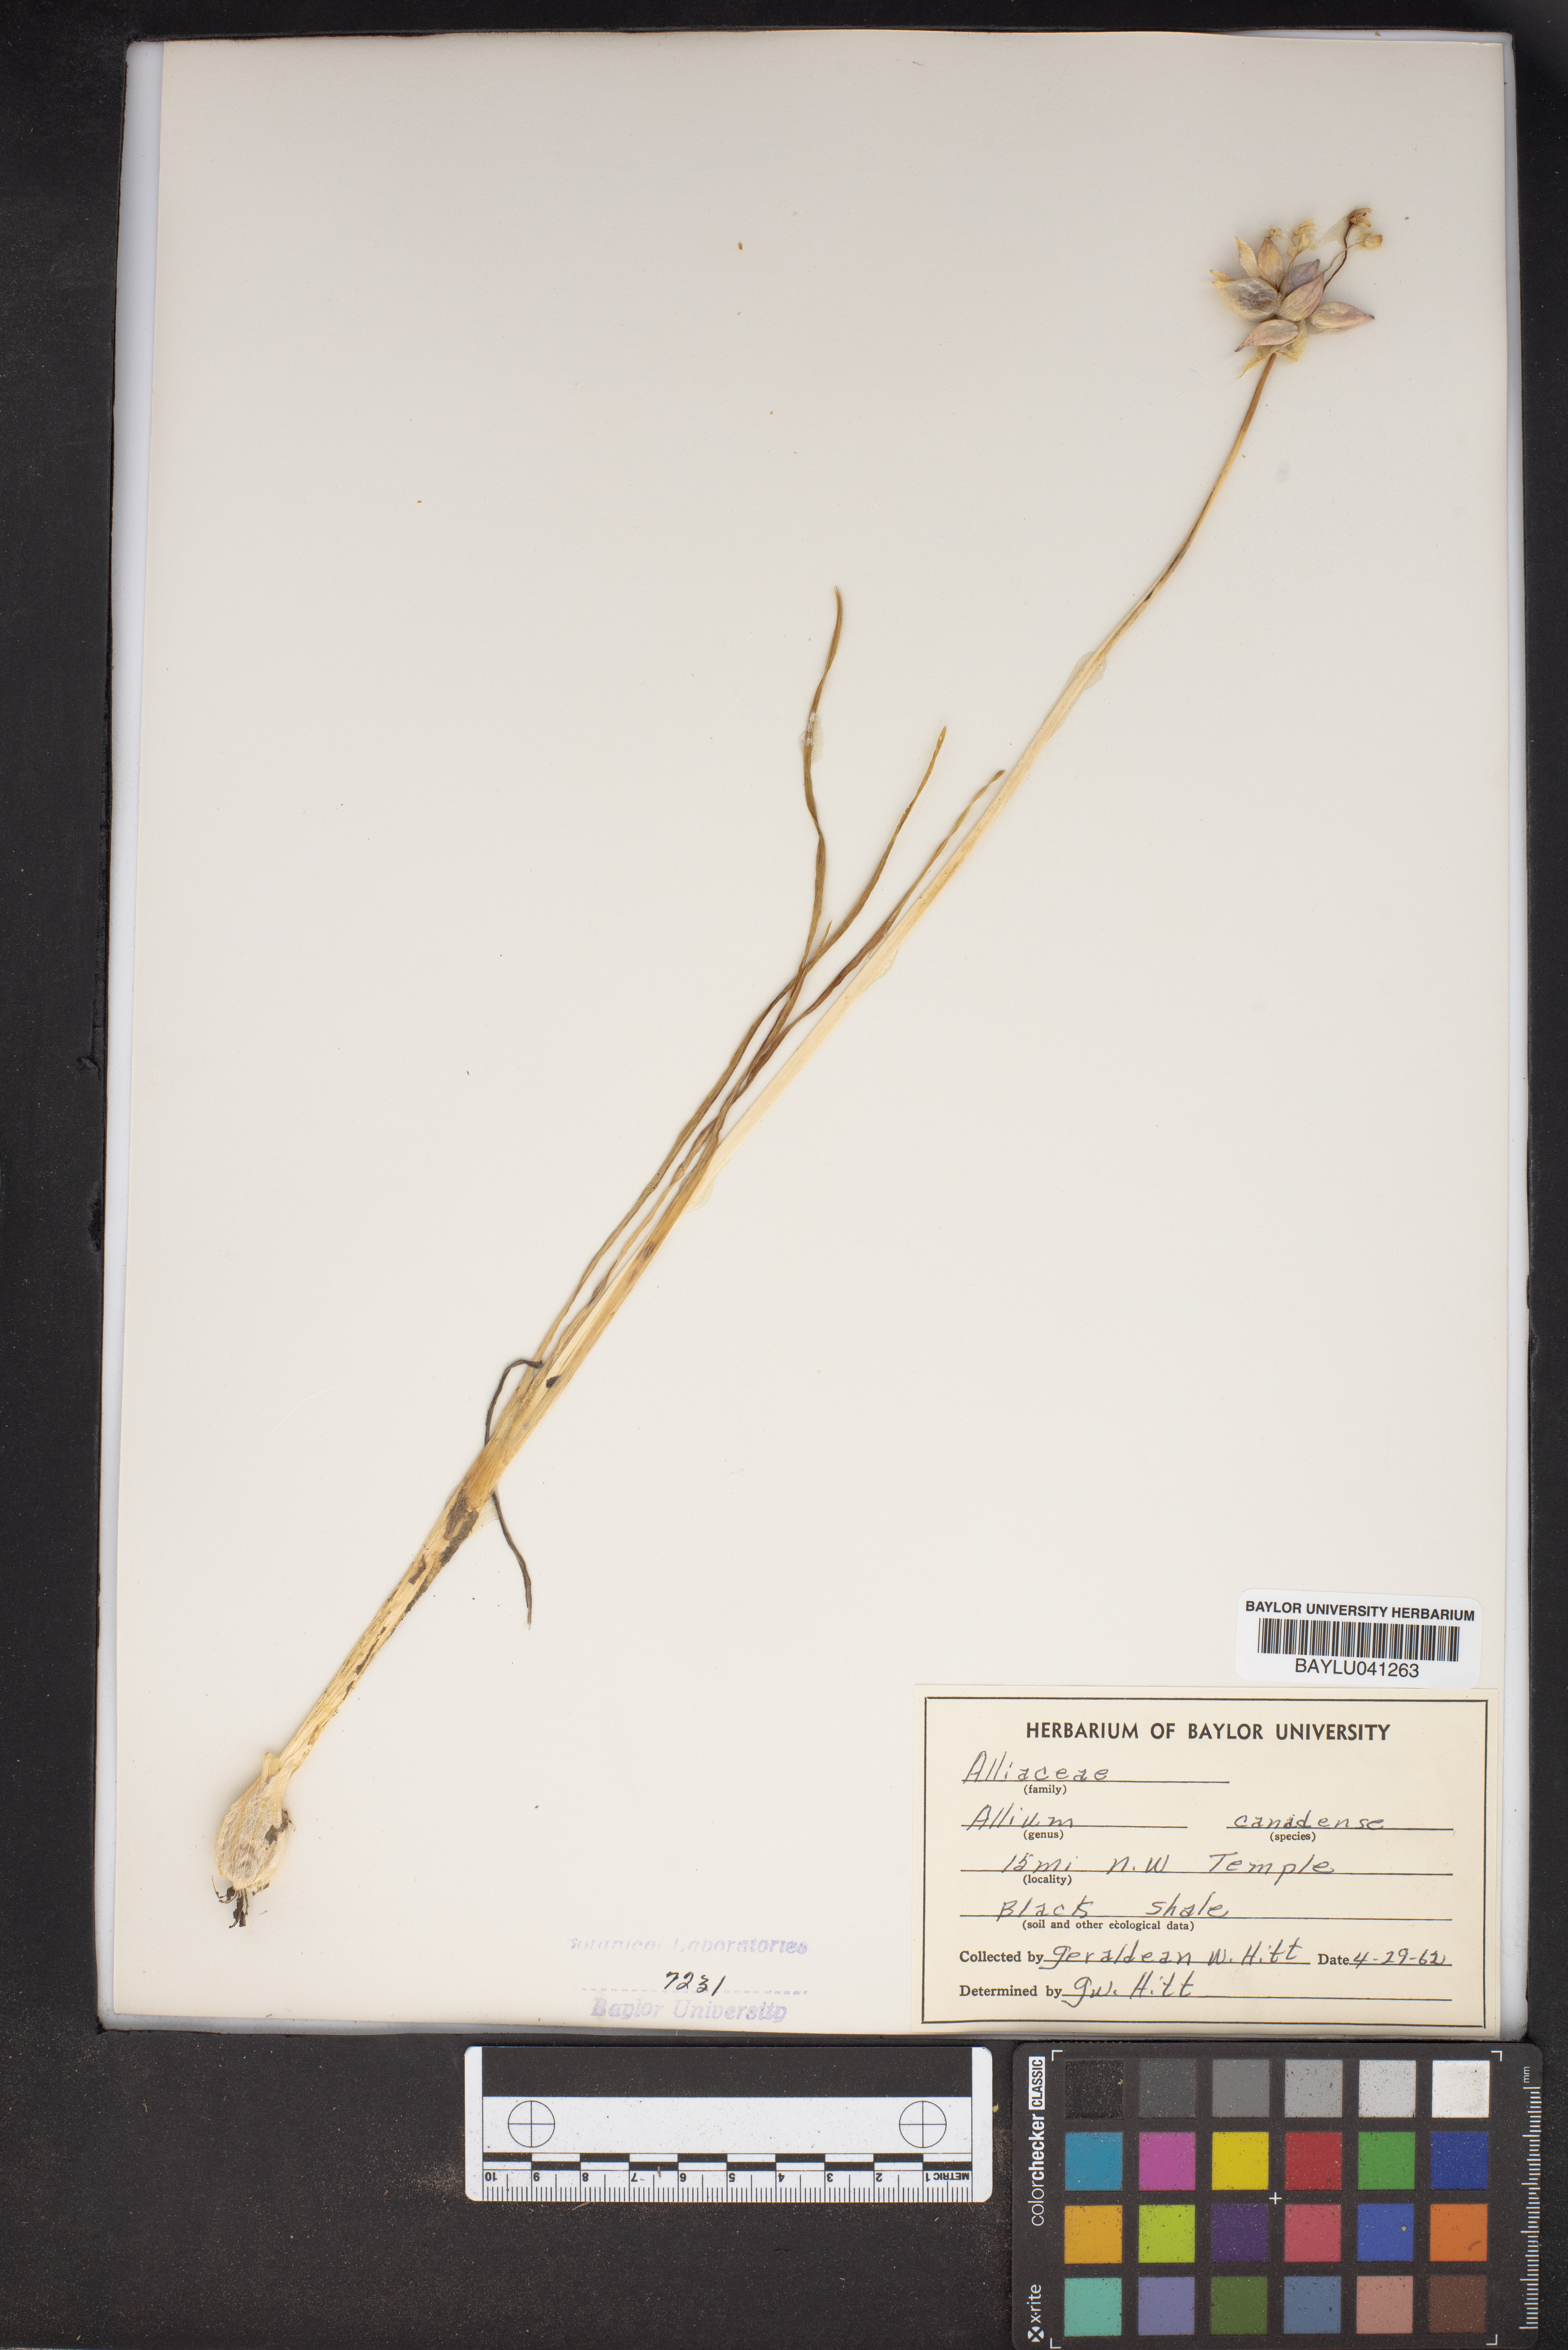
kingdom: Plantae
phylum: Tracheophyta
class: Liliopsida
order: Asparagales
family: Amaryllidaceae
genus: Allium
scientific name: Allium canadense
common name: Meadow garlic
